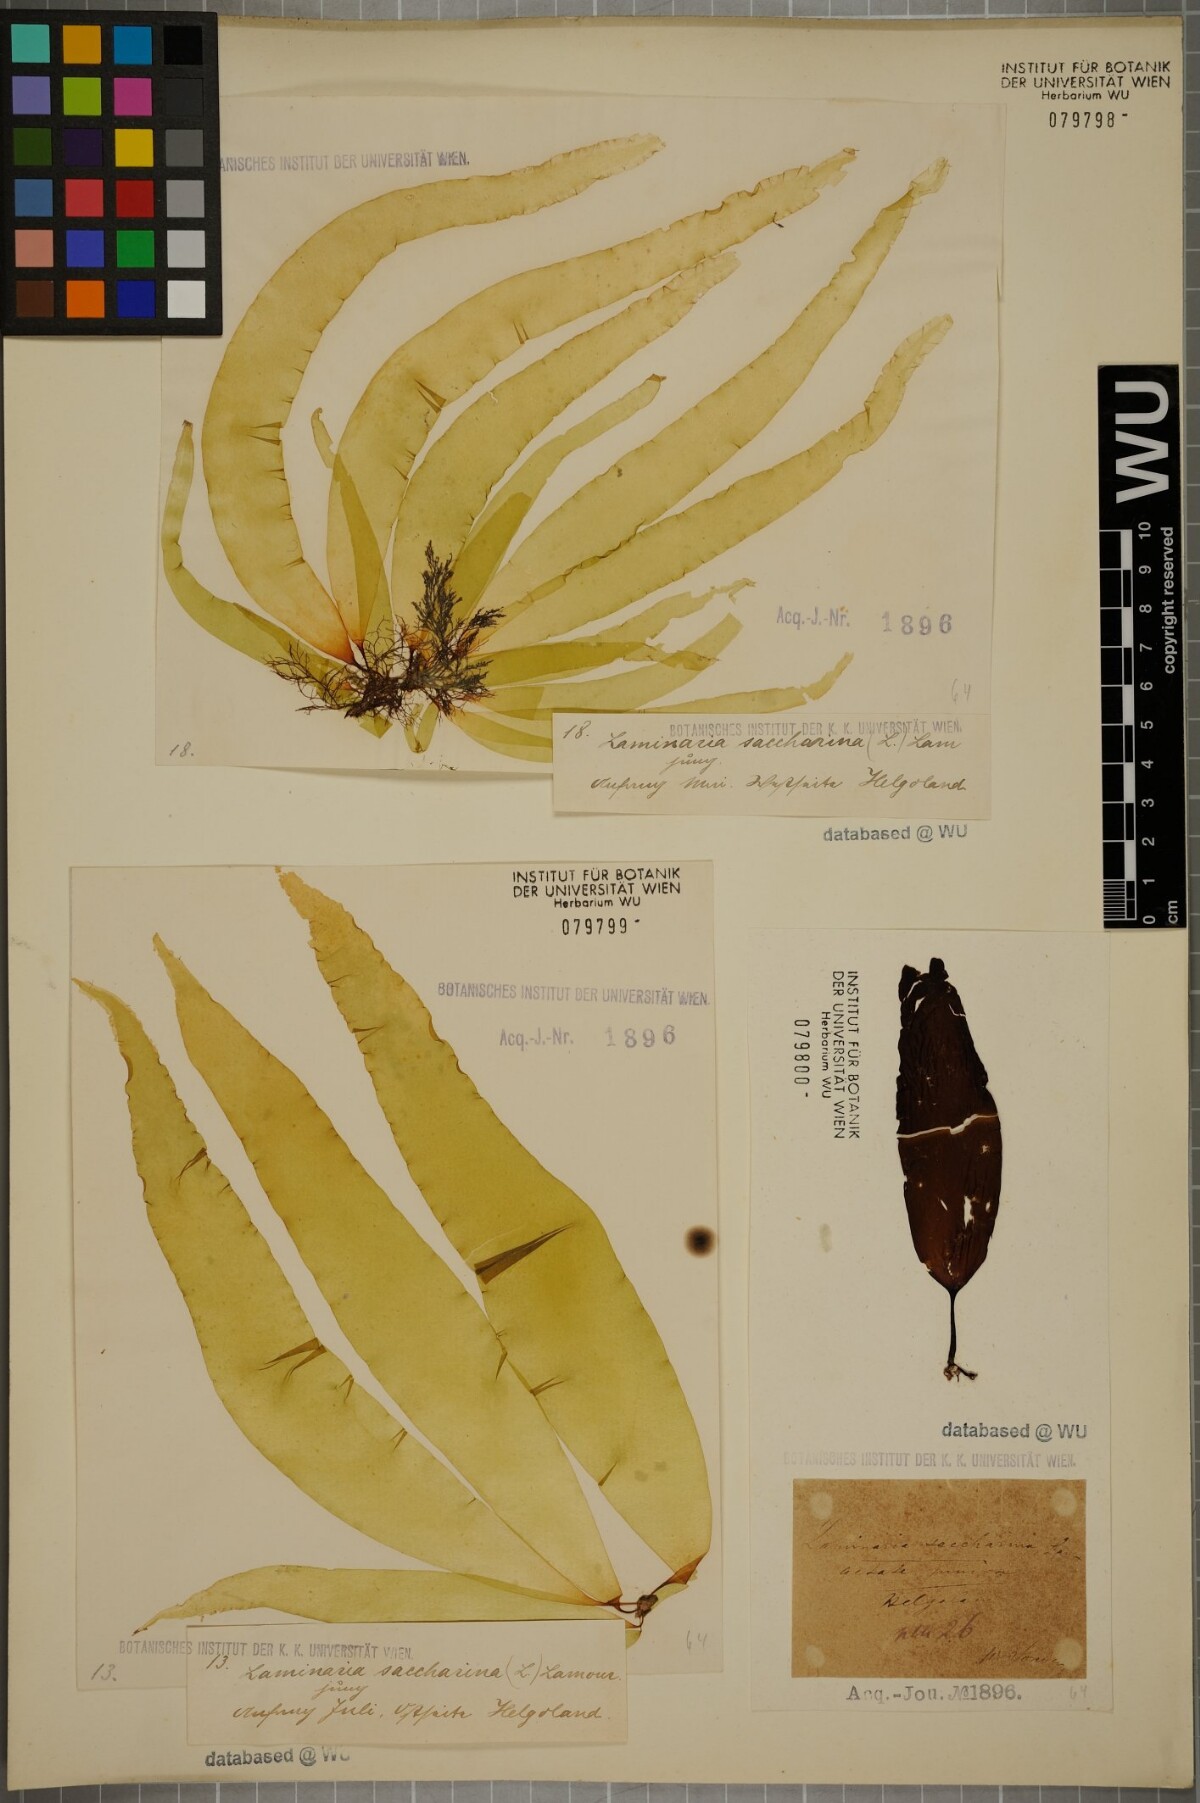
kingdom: Chromista
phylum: Ochrophyta
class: Phaeophyceae
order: Laminariales
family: Laminariaceae
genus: Saccharina
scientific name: Saccharina latissima
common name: Poor man's weather glass
